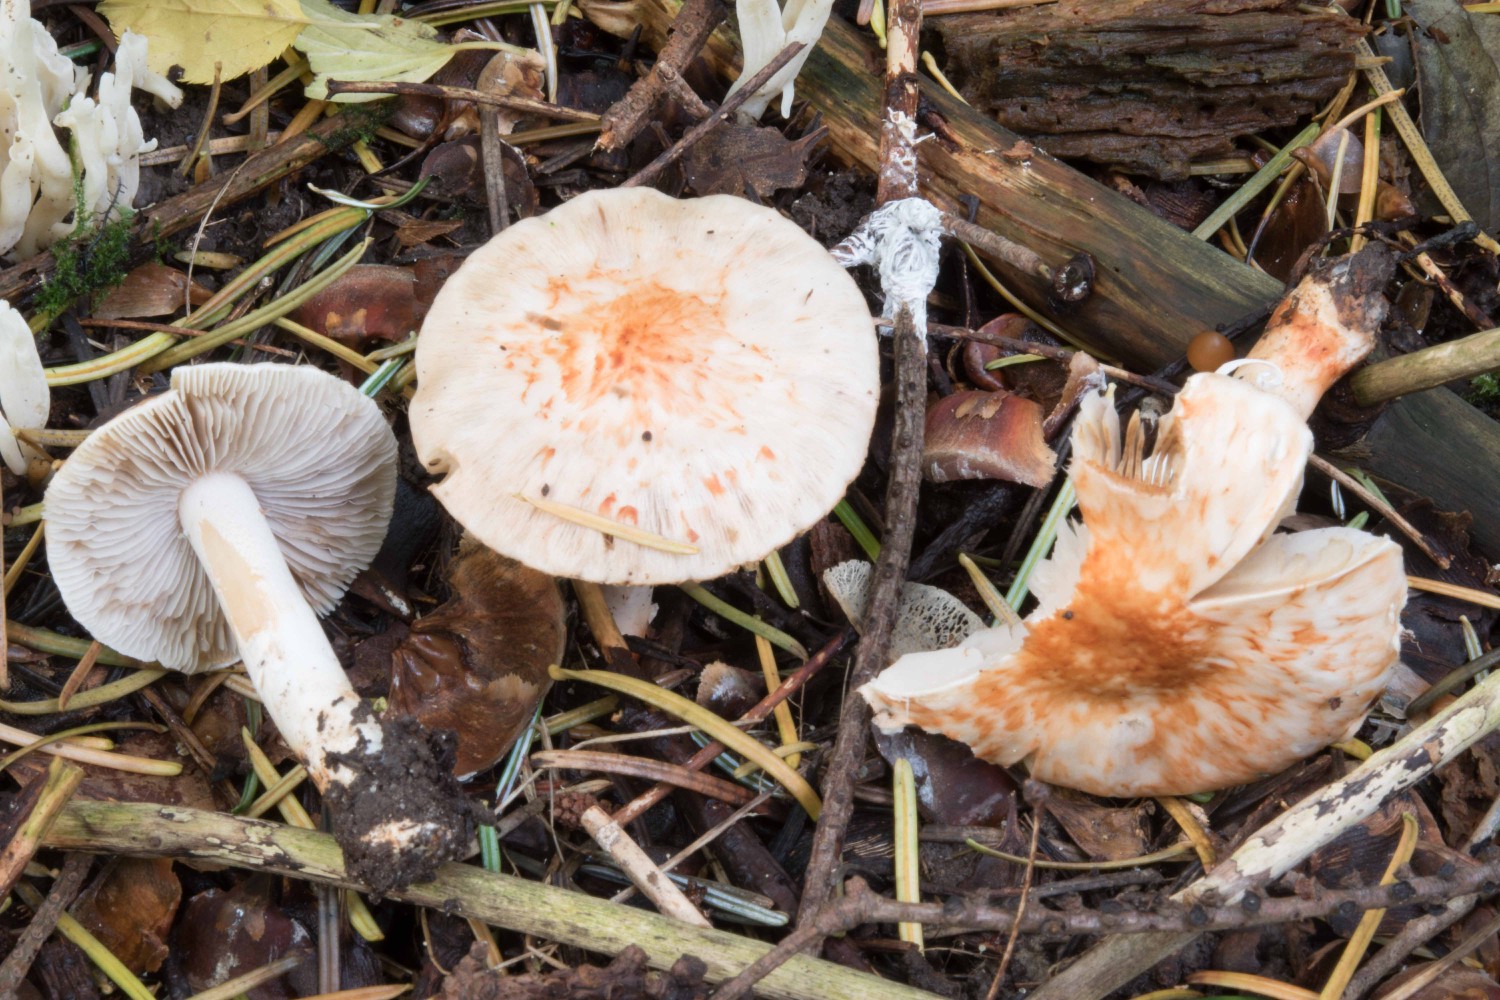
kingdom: Fungi
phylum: Basidiomycota
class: Agaricomycetes
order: Agaricales
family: Inocybaceae
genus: Inocybe
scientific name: Inocybe
